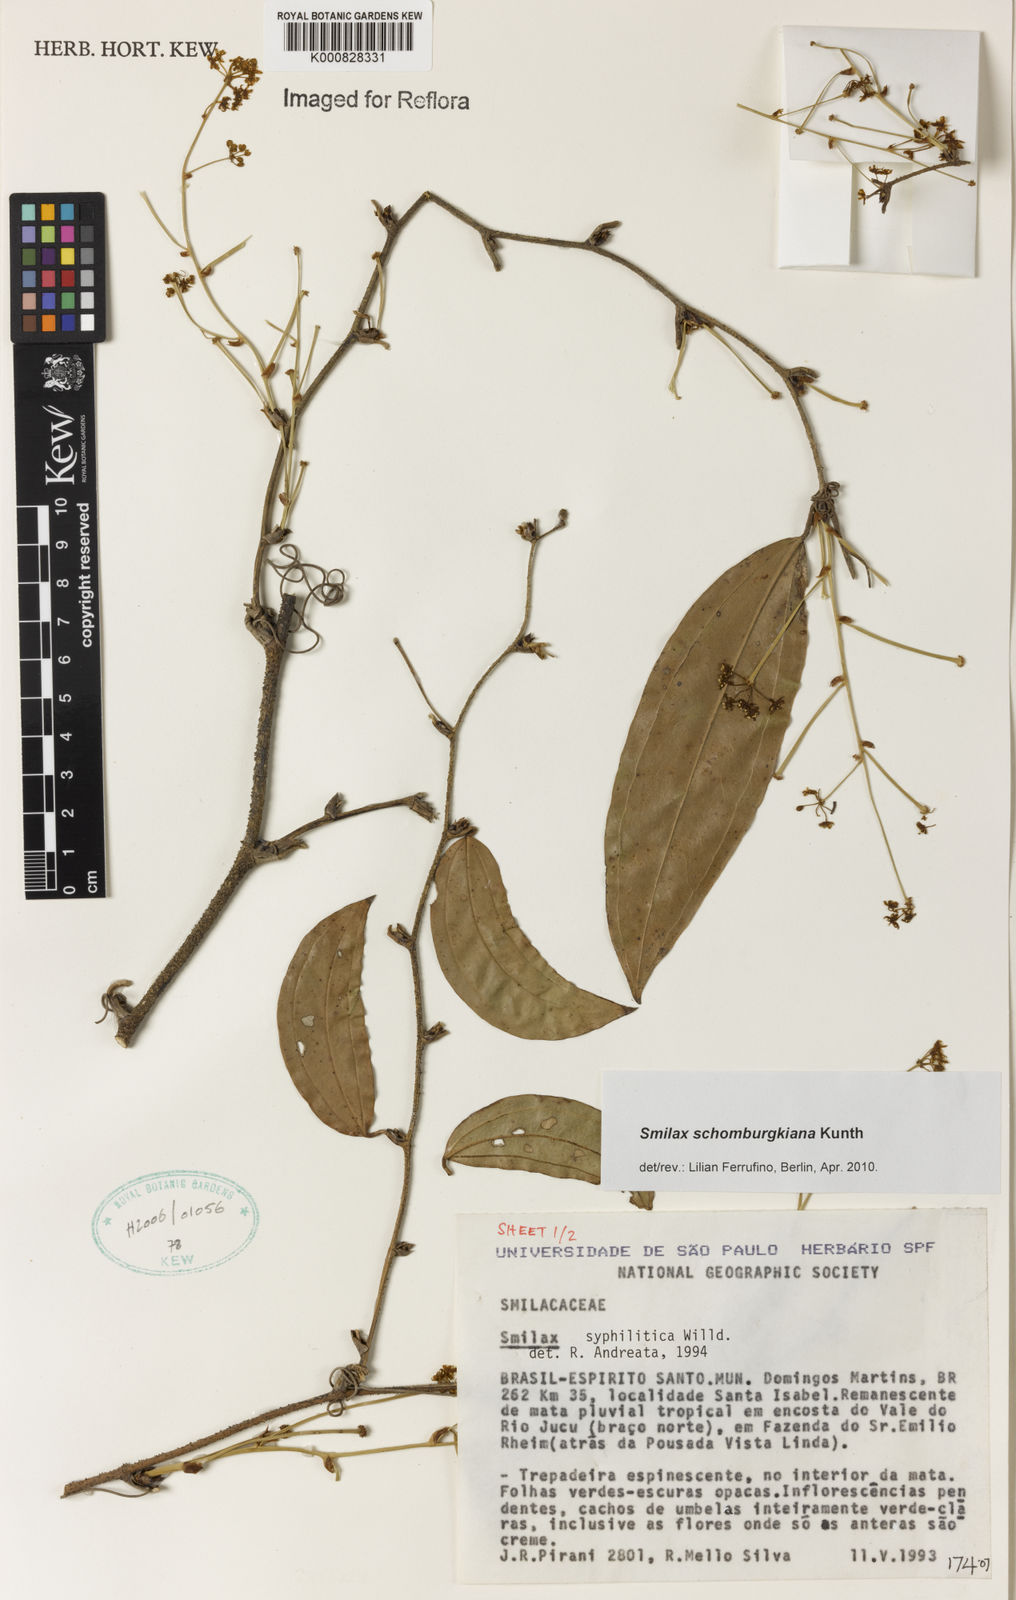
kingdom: Plantae
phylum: Tracheophyta
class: Liliopsida
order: Liliales
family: Smilacaceae
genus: Smilax
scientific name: Smilax schomburgkiana
